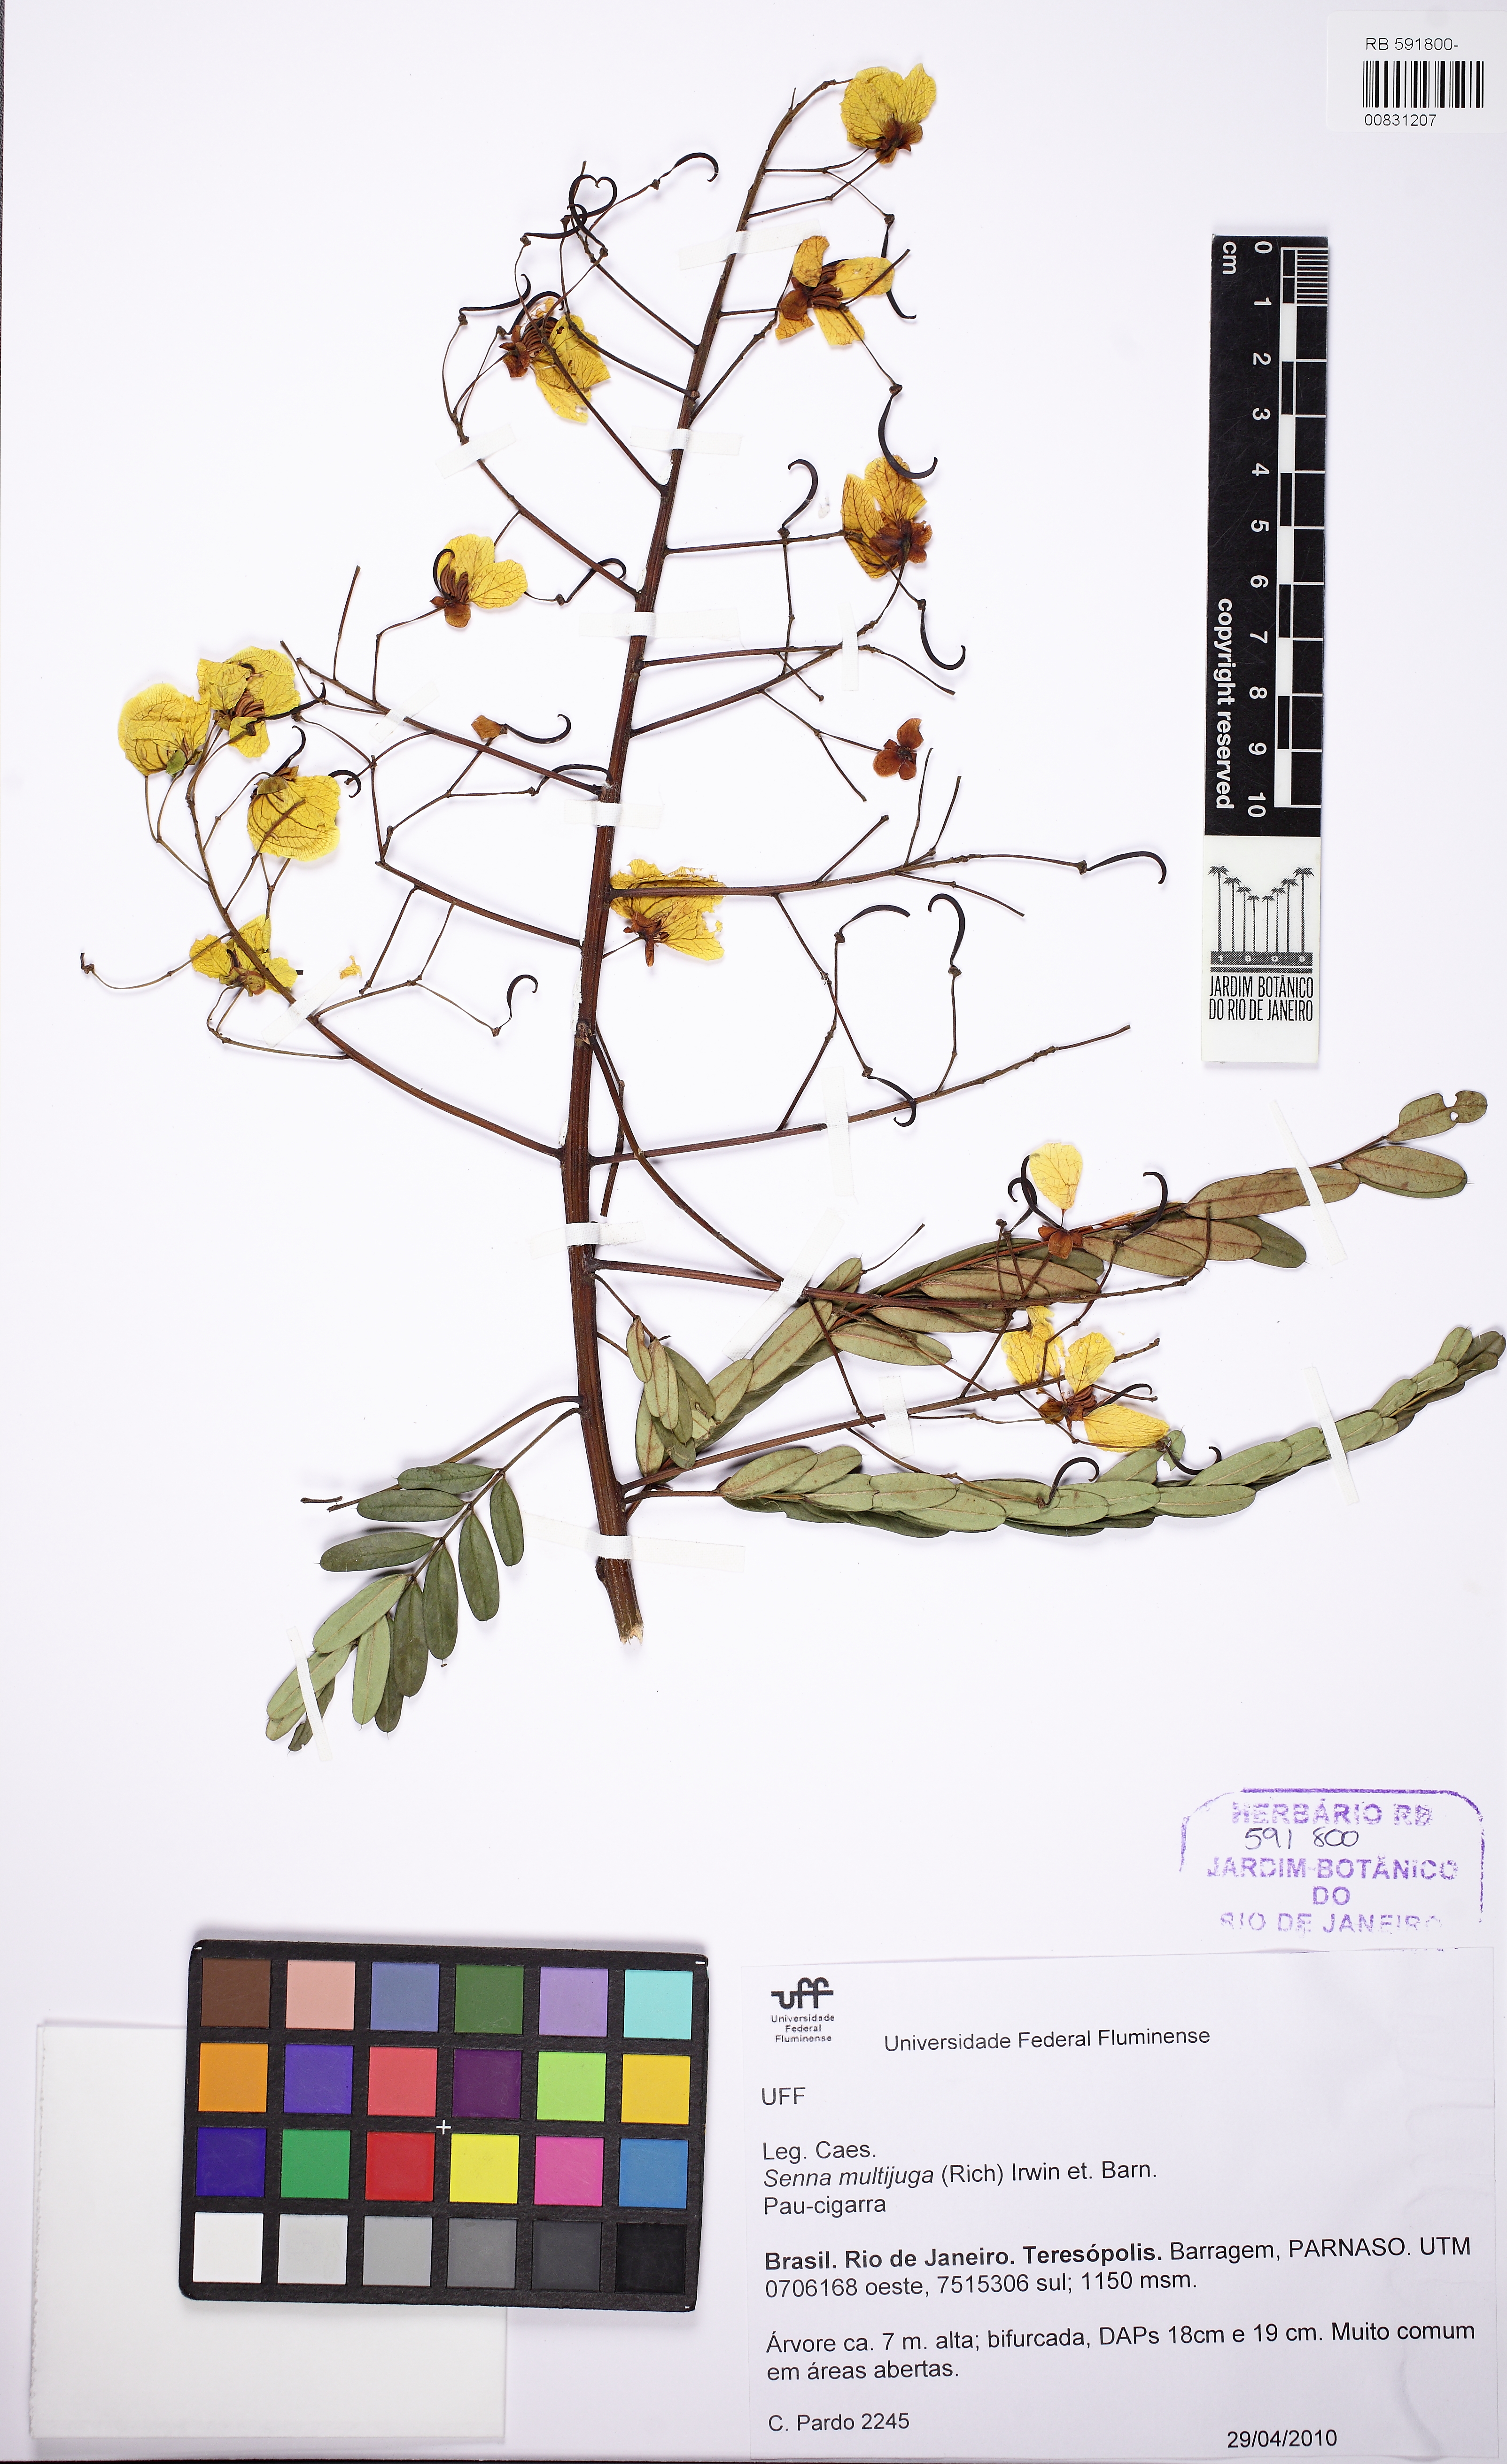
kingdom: Plantae
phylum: Tracheophyta
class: Magnoliopsida
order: Fabales
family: Fabaceae
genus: Senna
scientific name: Senna multijuga
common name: False sicklepod
